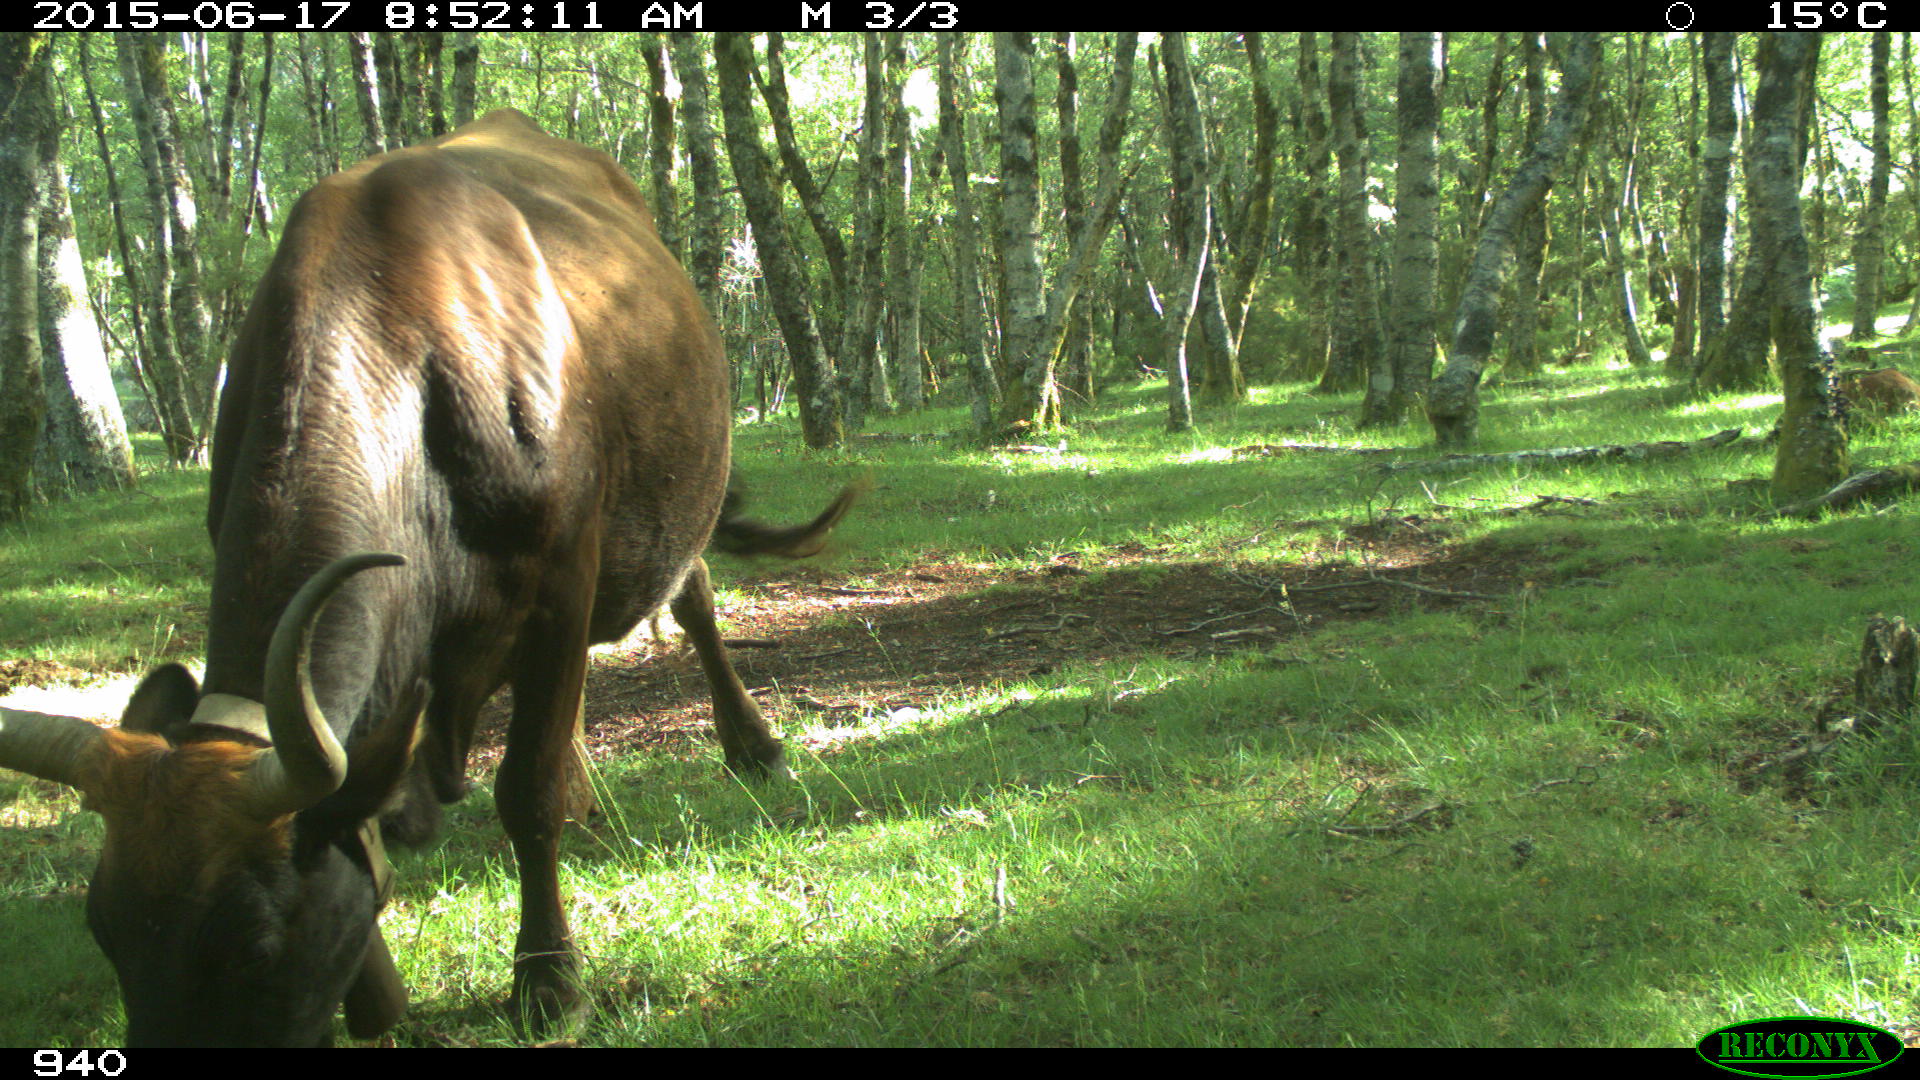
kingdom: Animalia
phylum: Chordata
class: Mammalia
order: Artiodactyla
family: Bovidae
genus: Bos
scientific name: Bos taurus
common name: Domesticated cattle
